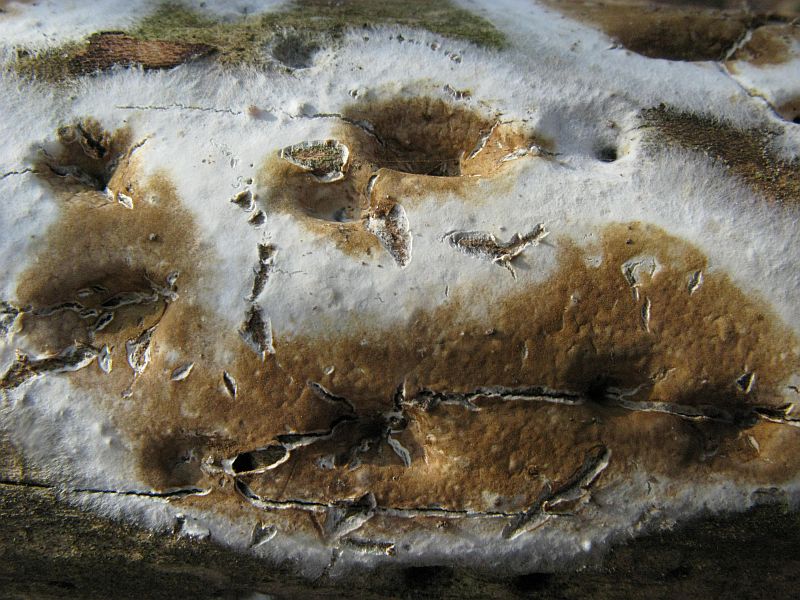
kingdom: Fungi
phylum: Basidiomycota
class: Agaricomycetes
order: Boletales
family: Coniophoraceae
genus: Coniophora
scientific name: Coniophora puteana
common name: gul tømmersvamp
